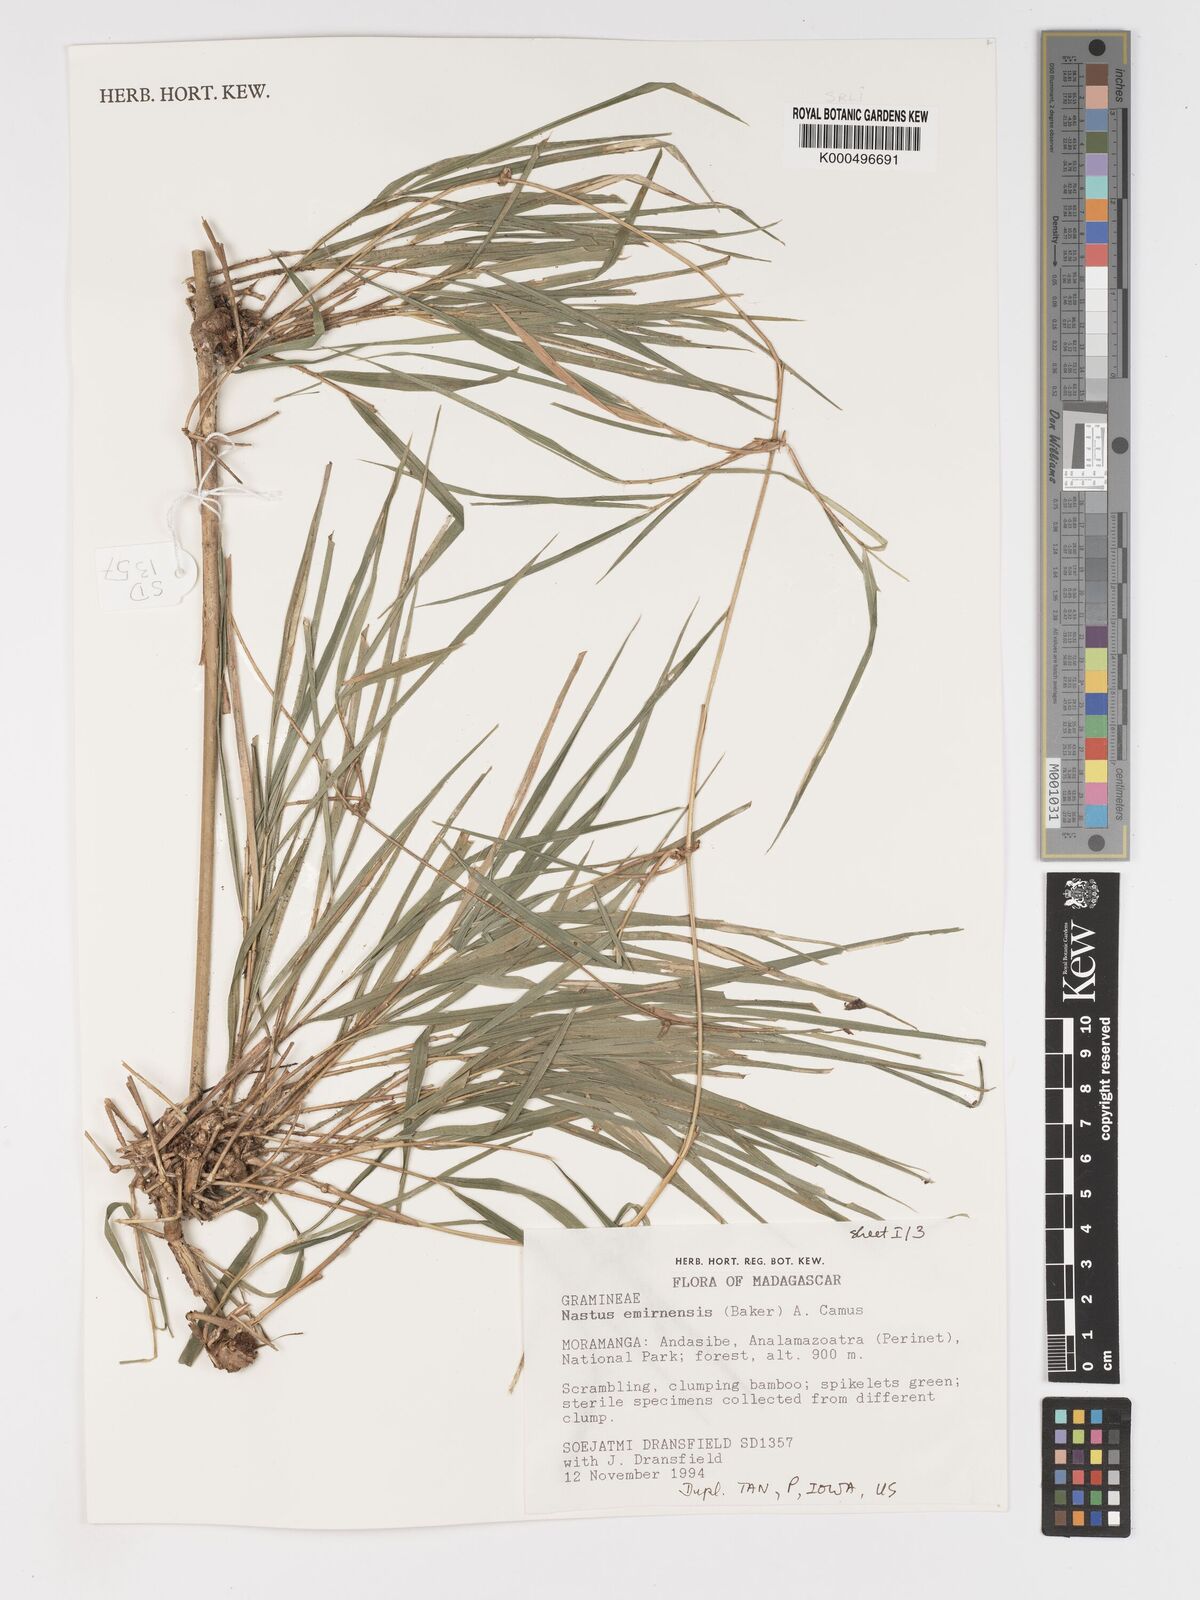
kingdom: Plantae
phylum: Tracheophyta
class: Liliopsida
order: Poales
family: Poaceae
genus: Nastus
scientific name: Nastus elongatus
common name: Spider bamboo
